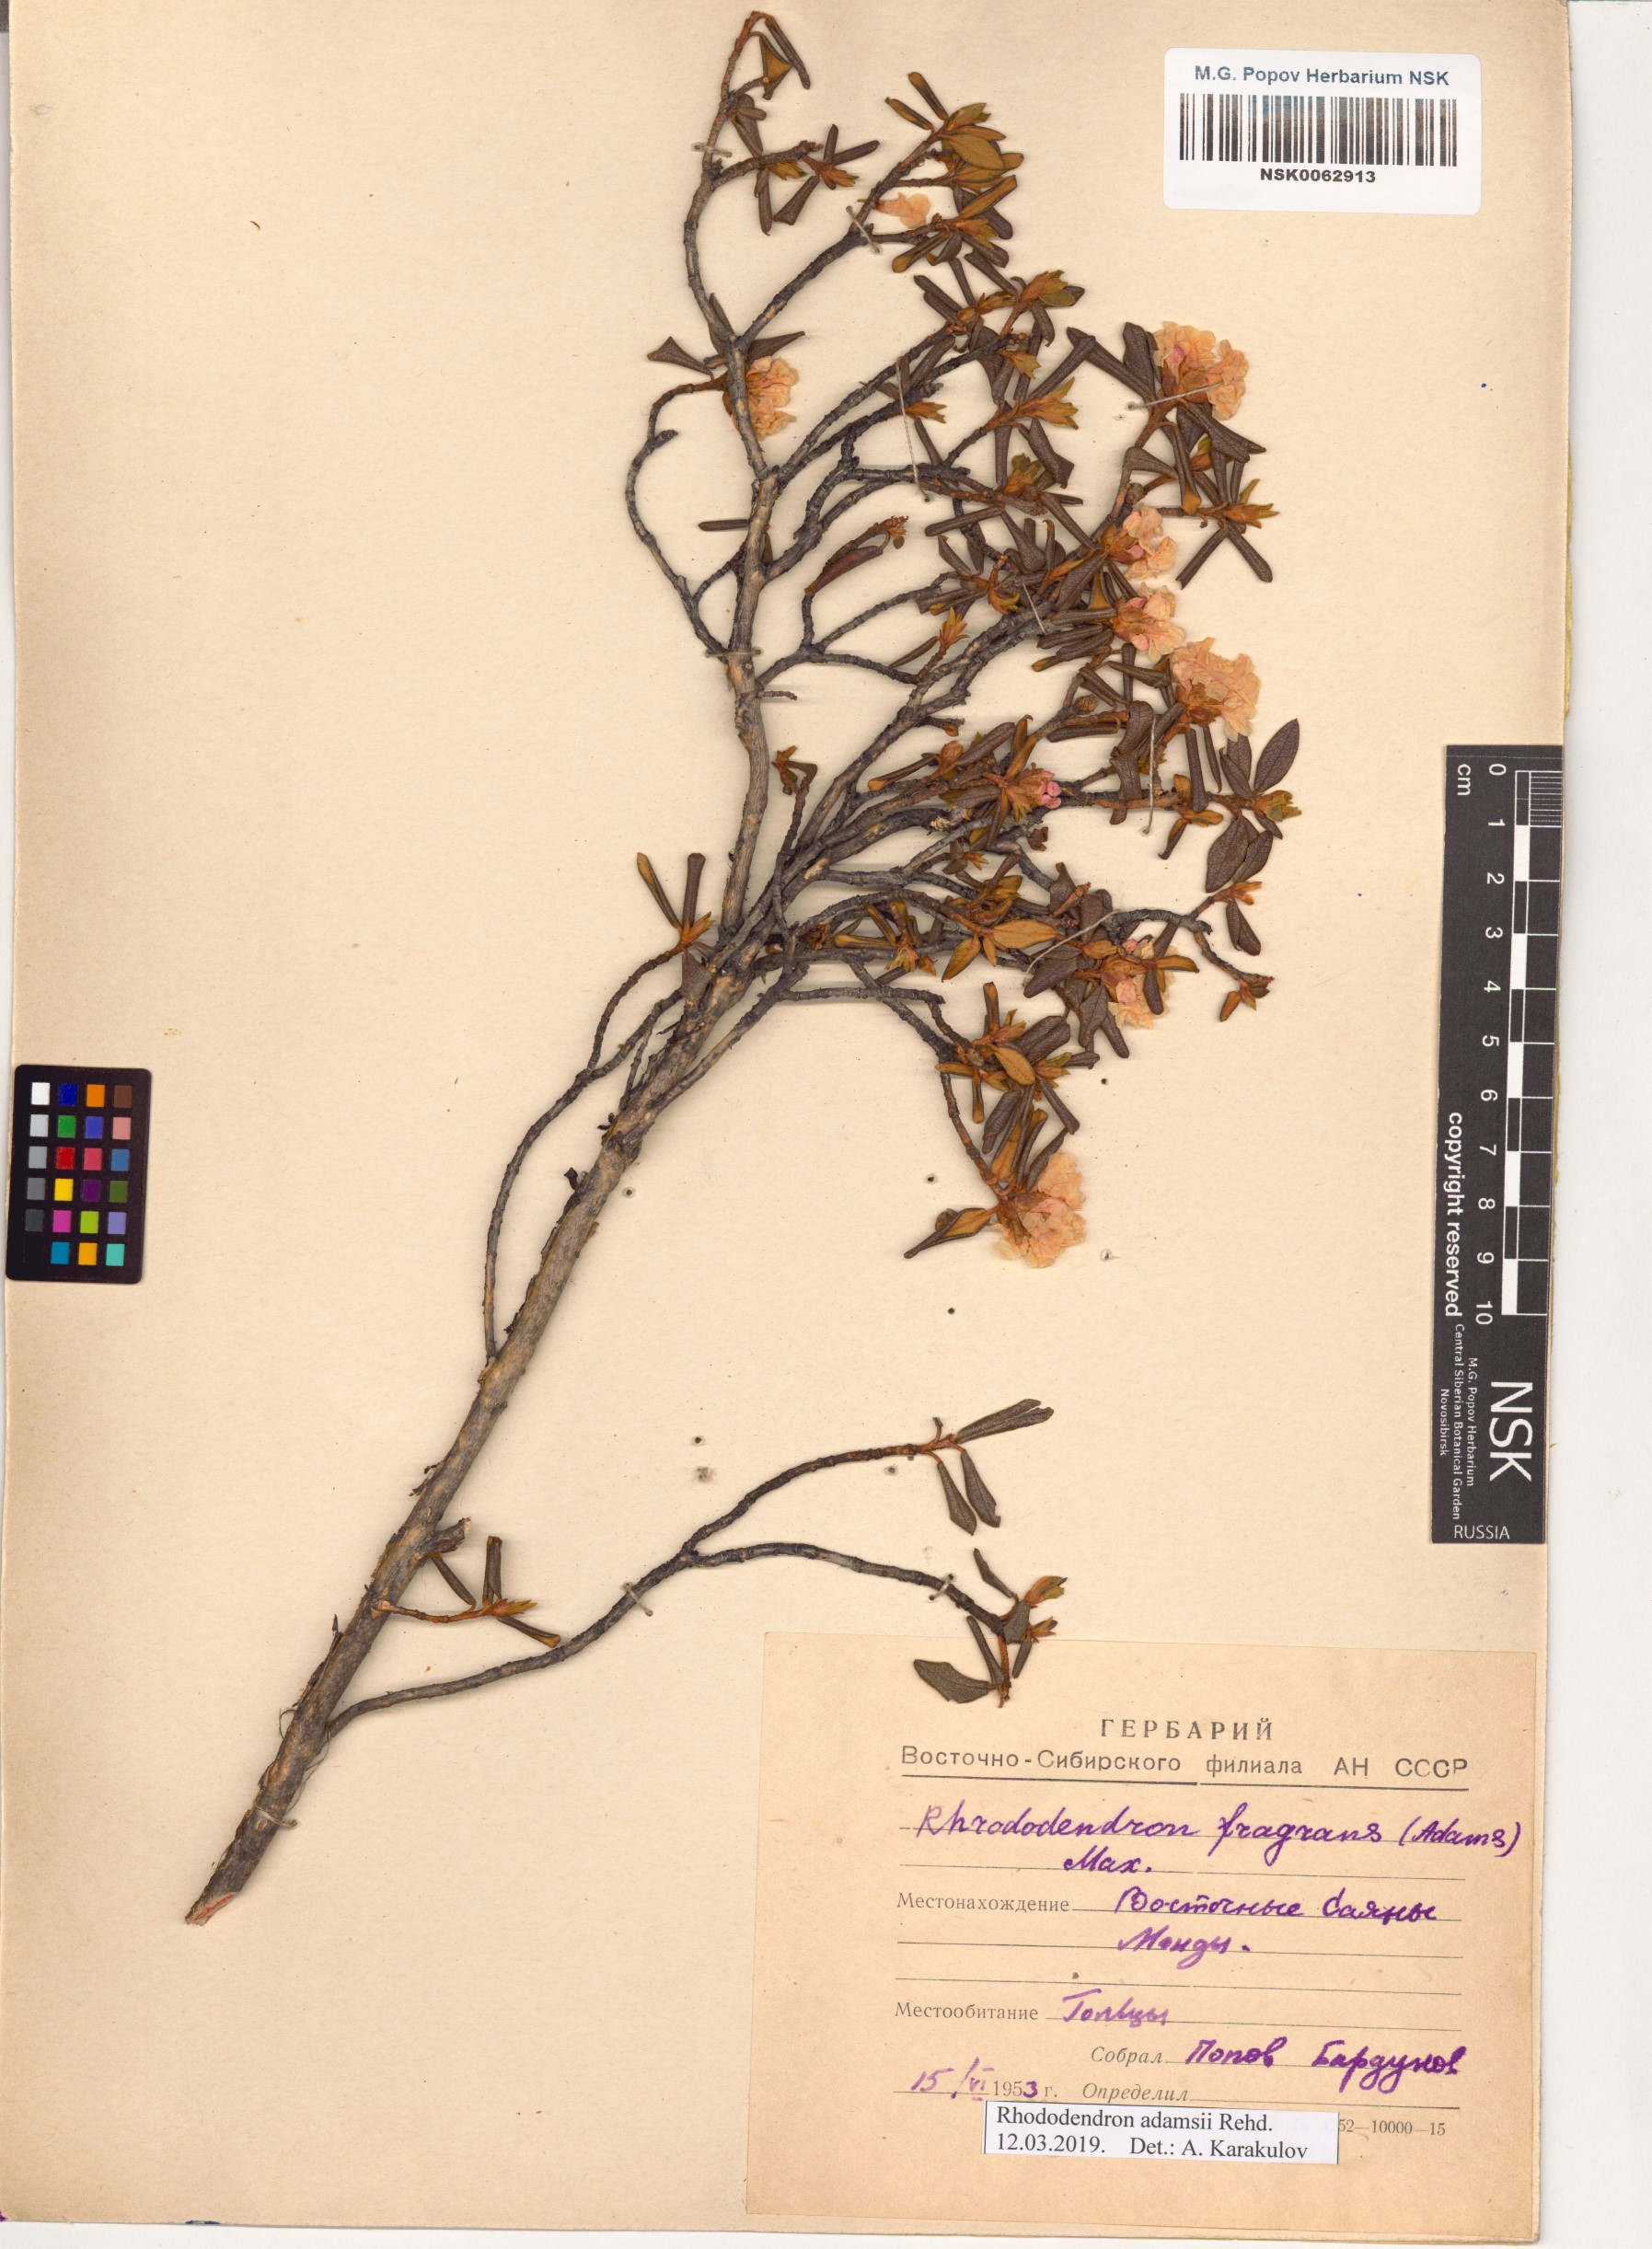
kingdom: Plantae
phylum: Tracheophyta
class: Magnoliopsida
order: Ericales
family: Ericaceae
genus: Rhododendron
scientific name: Rhododendron adamsii
